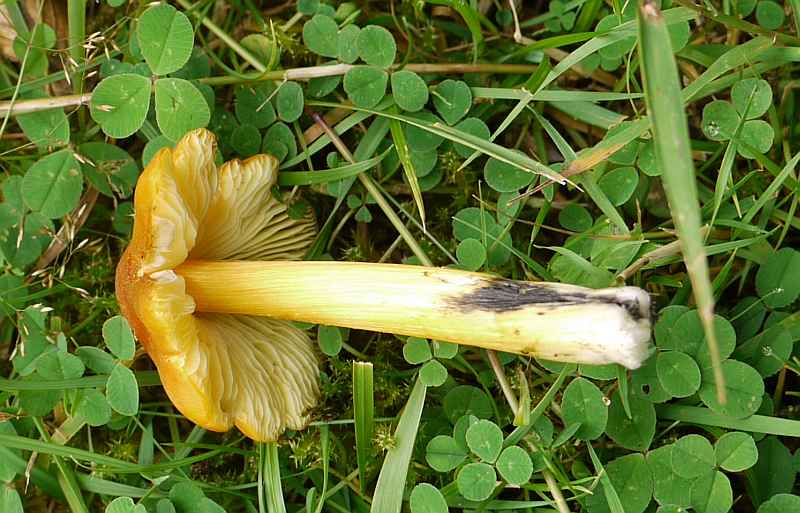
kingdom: Fungi
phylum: Basidiomycota
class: Agaricomycetes
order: Agaricales
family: Hygrophoraceae
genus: Hygrocybe
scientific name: Hygrocybe conica
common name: kegle-vokshat
